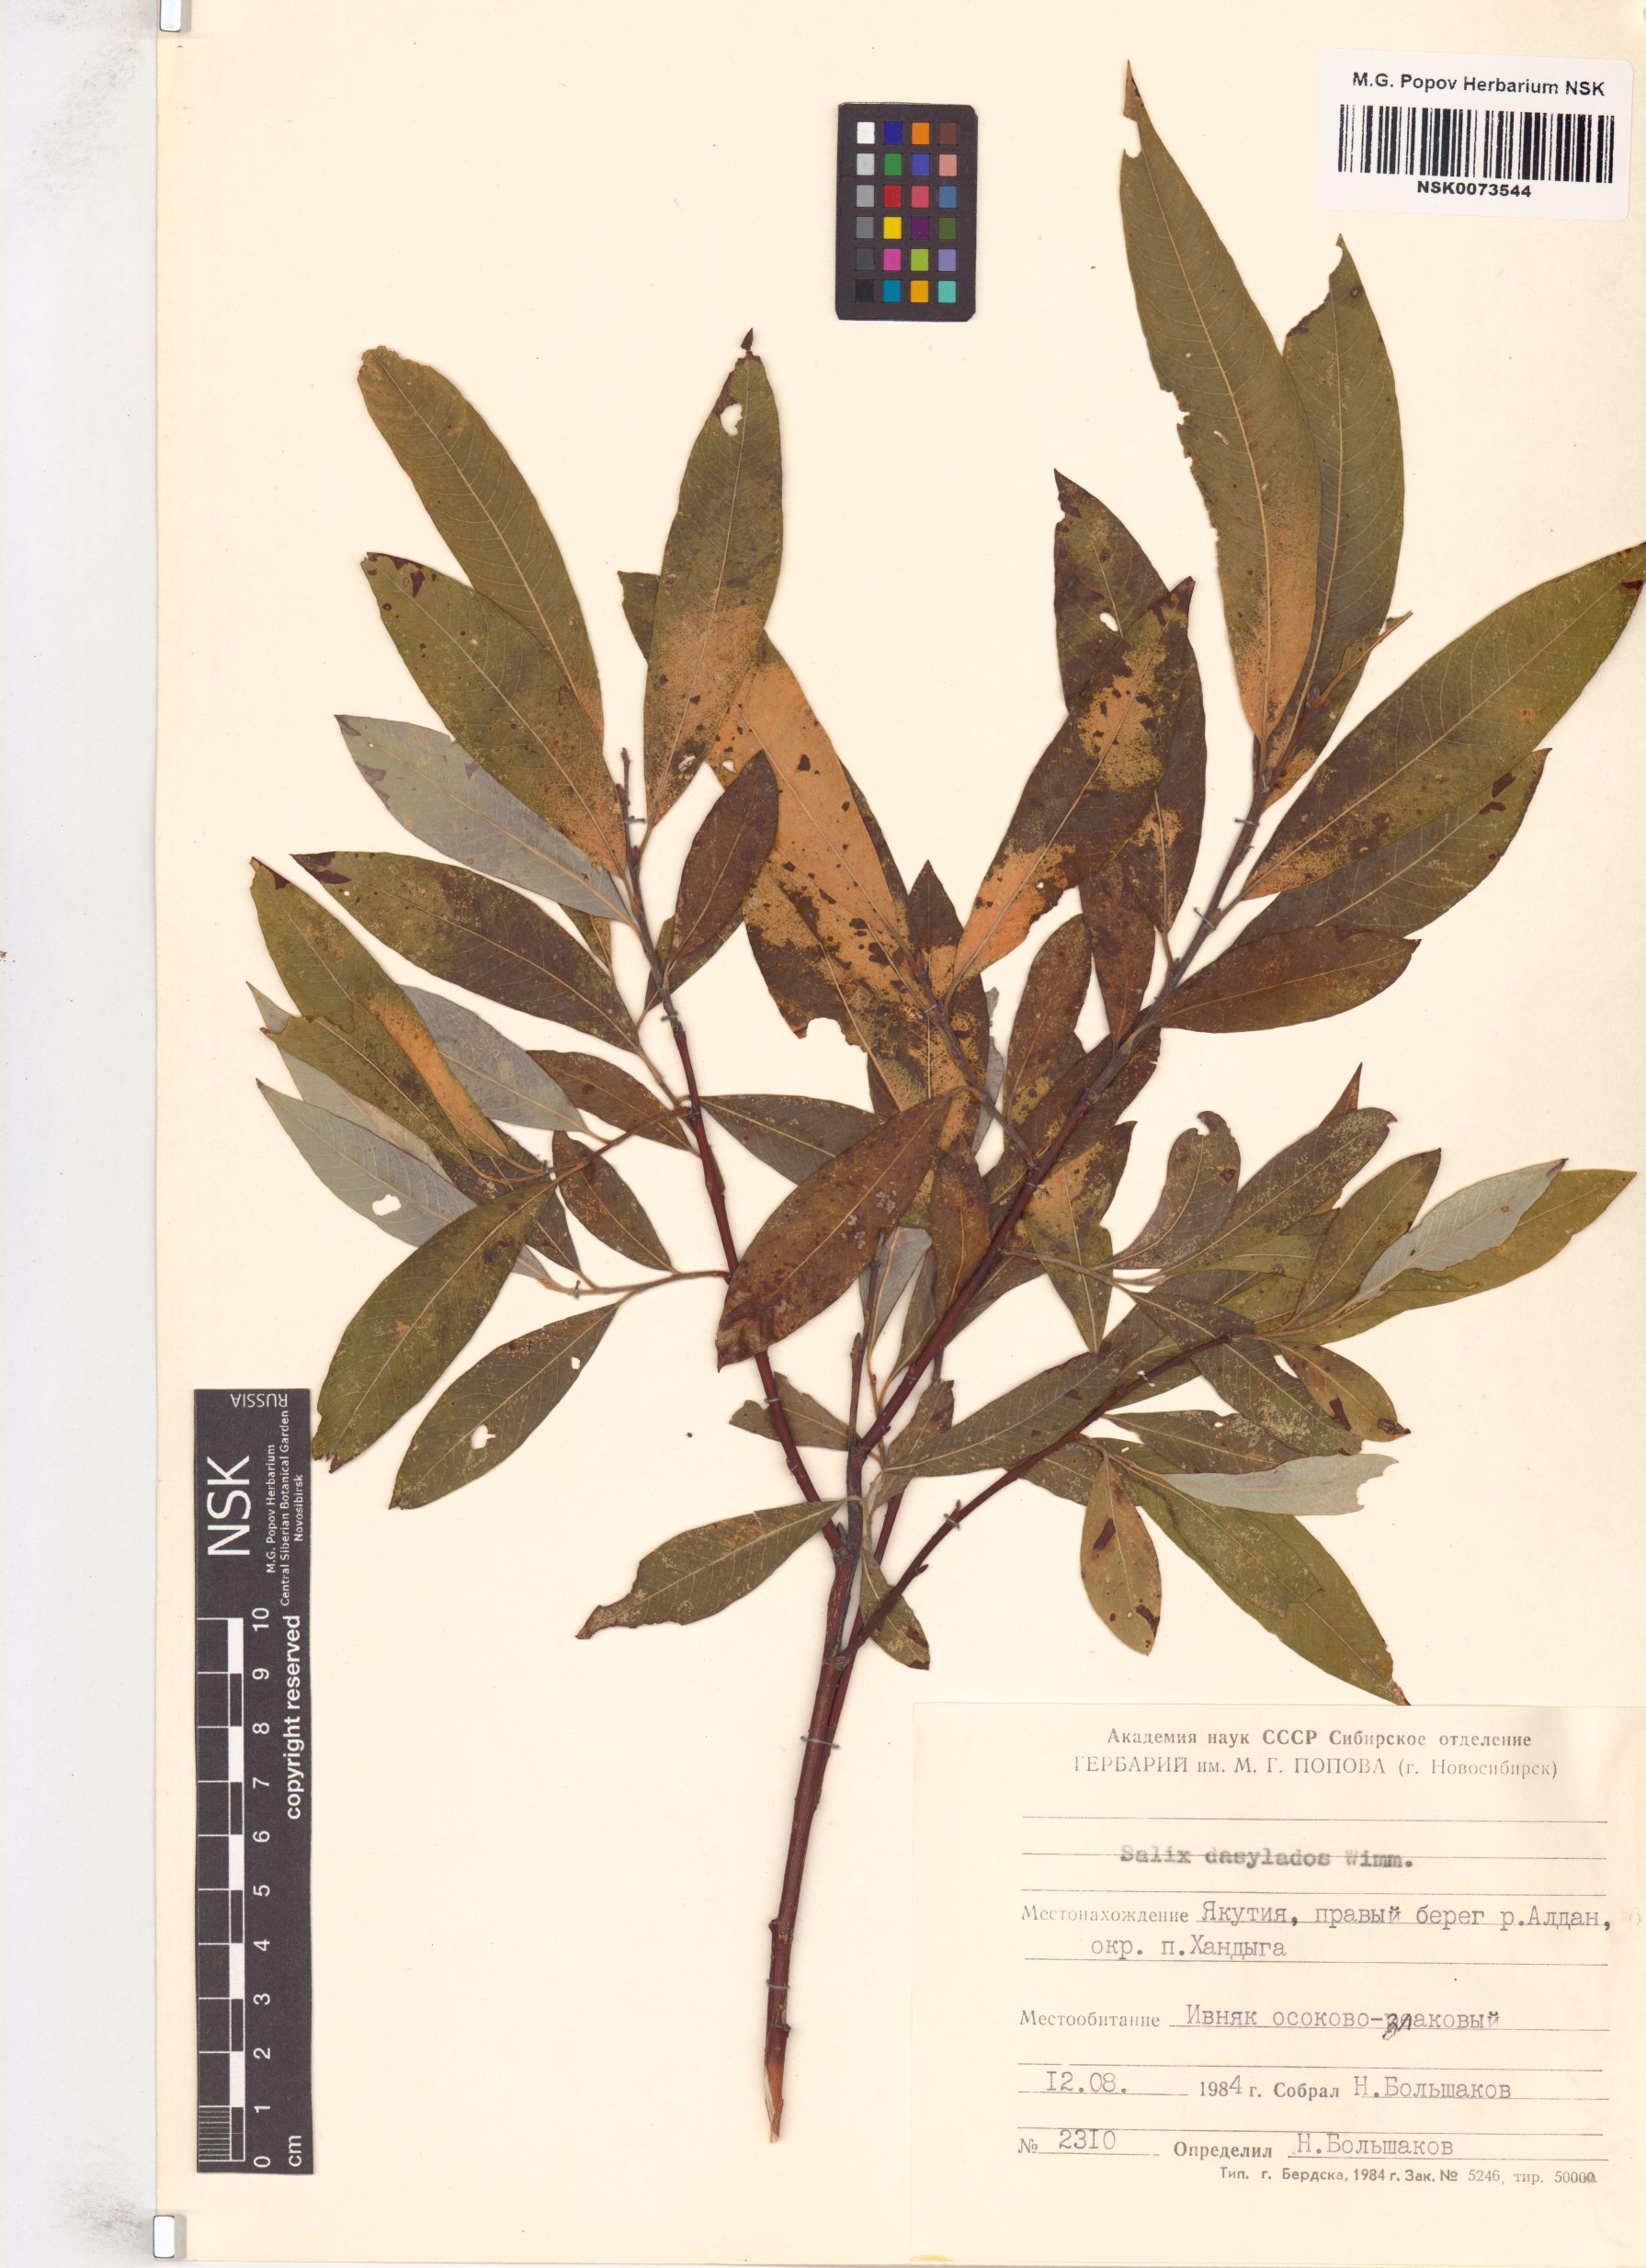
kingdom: Plantae
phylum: Tracheophyta
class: Magnoliopsida
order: Malpighiales
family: Salicaceae
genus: Salix
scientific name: Salix gmelinii
